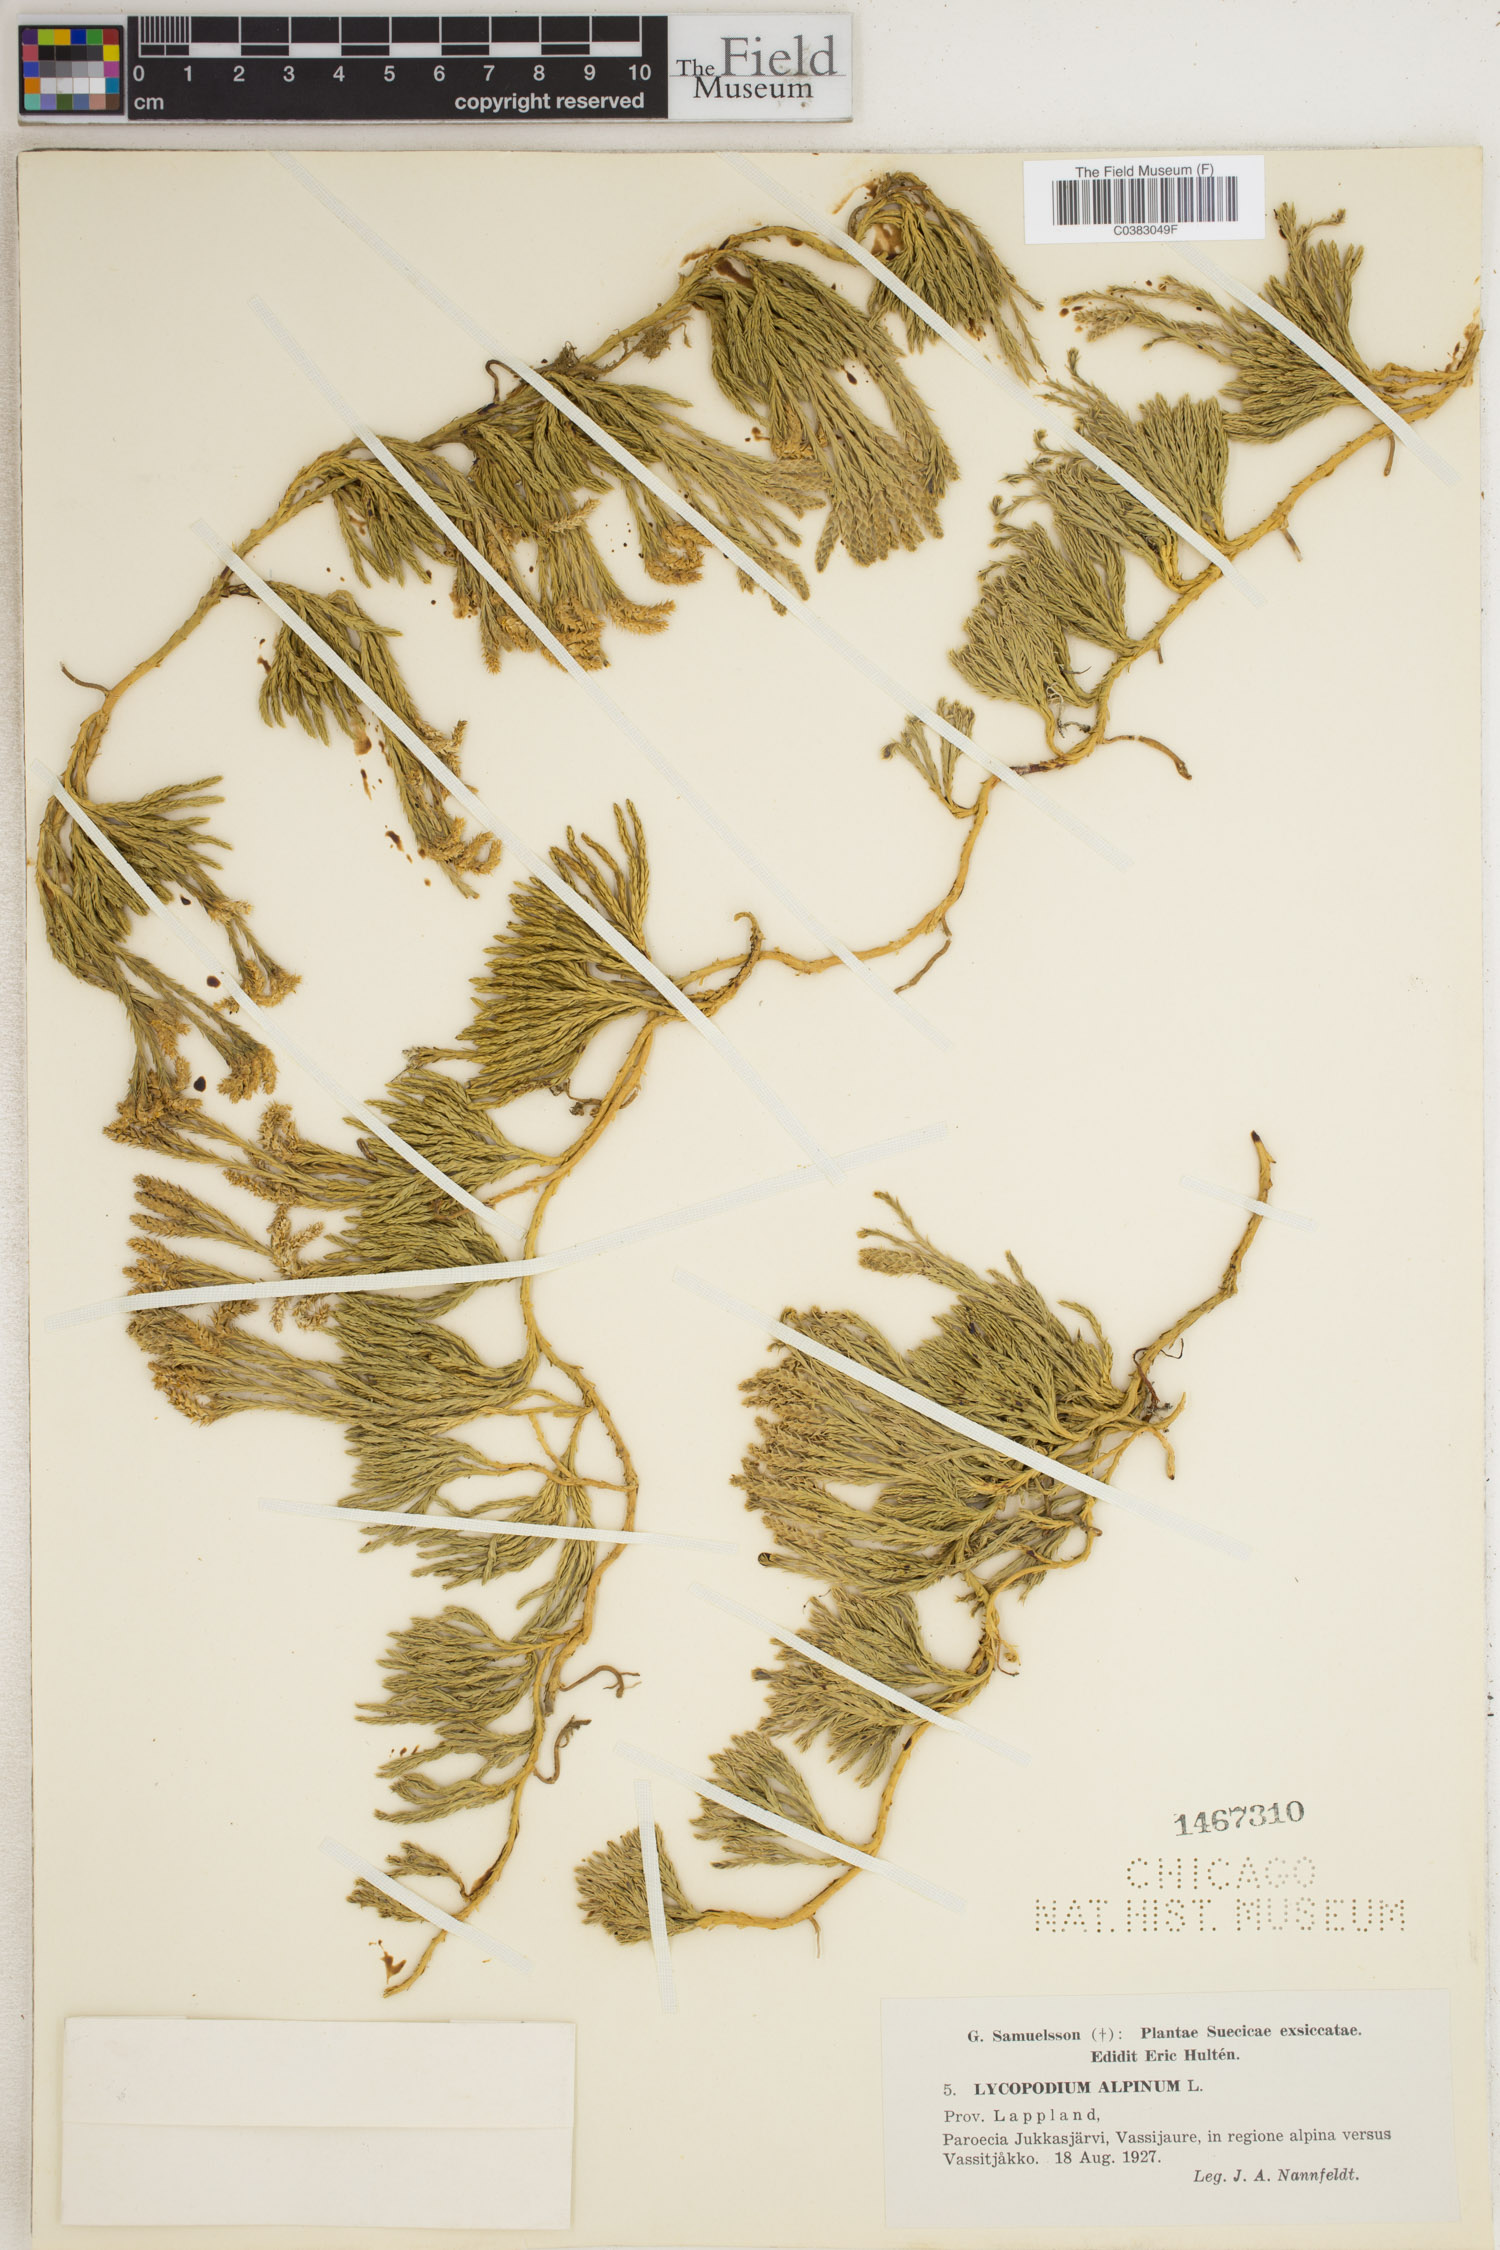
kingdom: Plantae
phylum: Tracheophyta
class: Lycopodiopsida
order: Lycopodiales
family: Lycopodiaceae
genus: Diphasiastrum
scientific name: Diphasiastrum alpinum
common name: Alpine clubmoss
